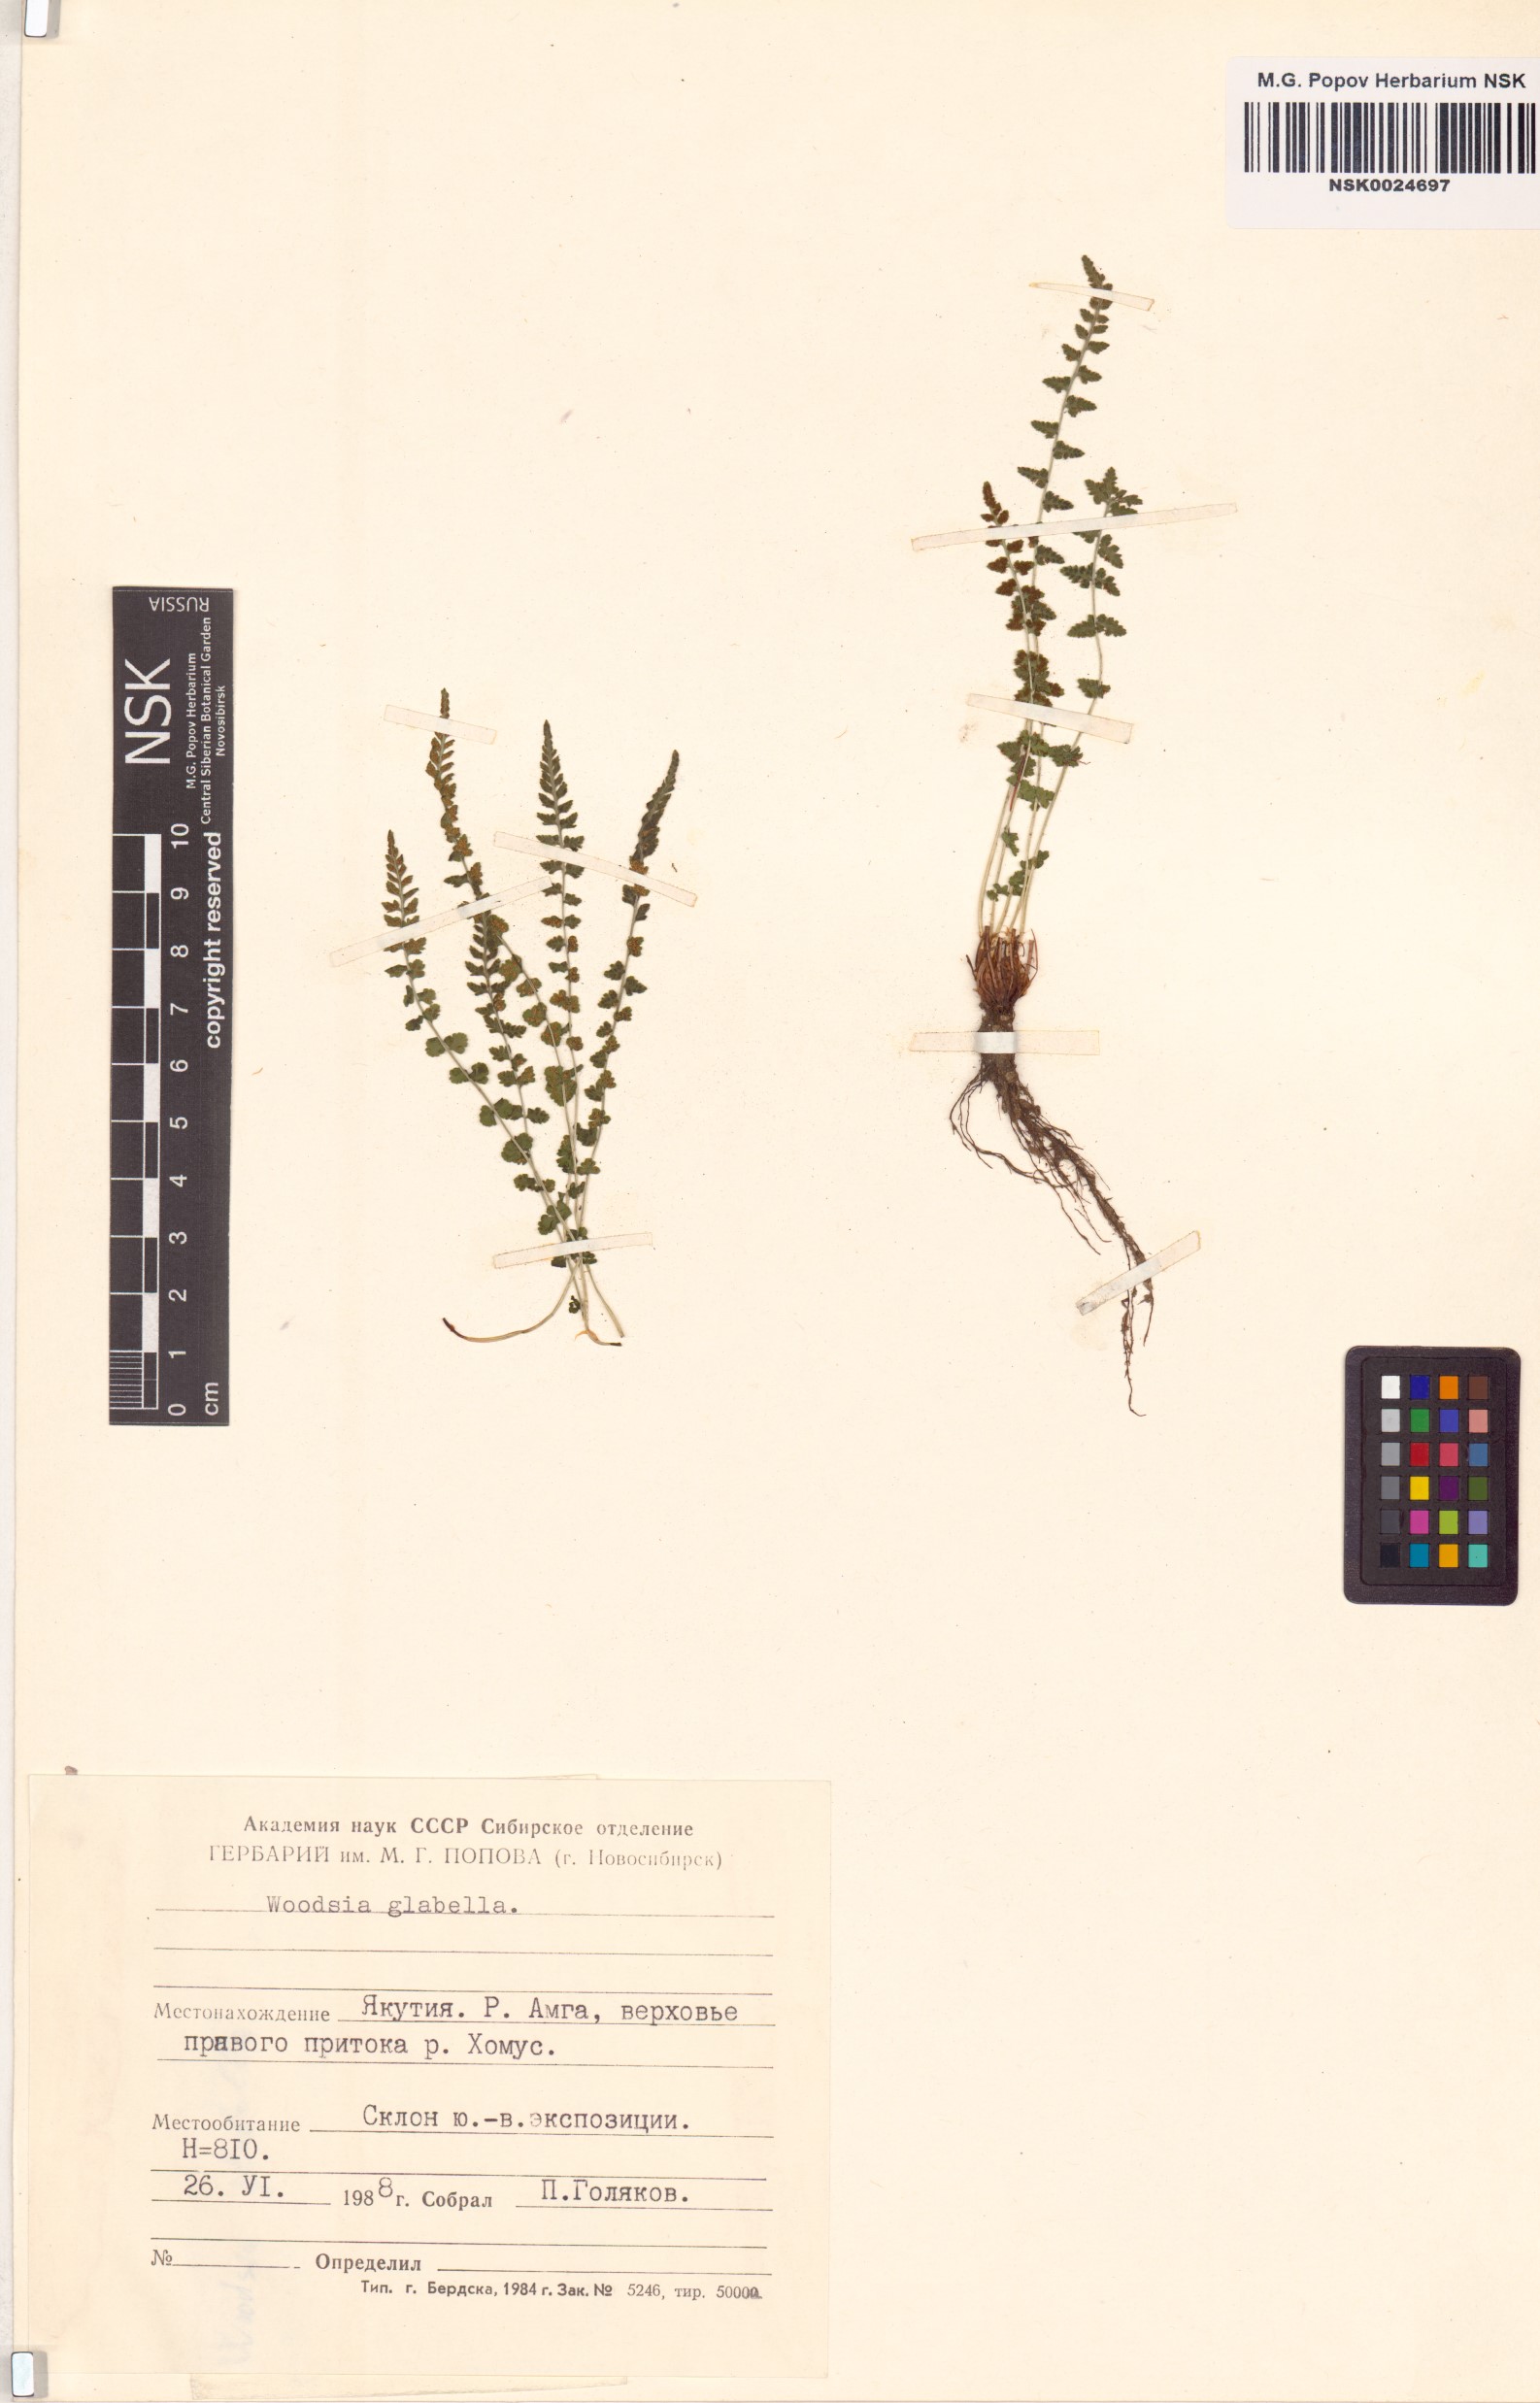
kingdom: Plantae
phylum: Tracheophyta
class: Polypodiopsida
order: Polypodiales
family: Woodsiaceae
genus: Woodsia
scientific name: Woodsia glabella
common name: Smooth woodsia
